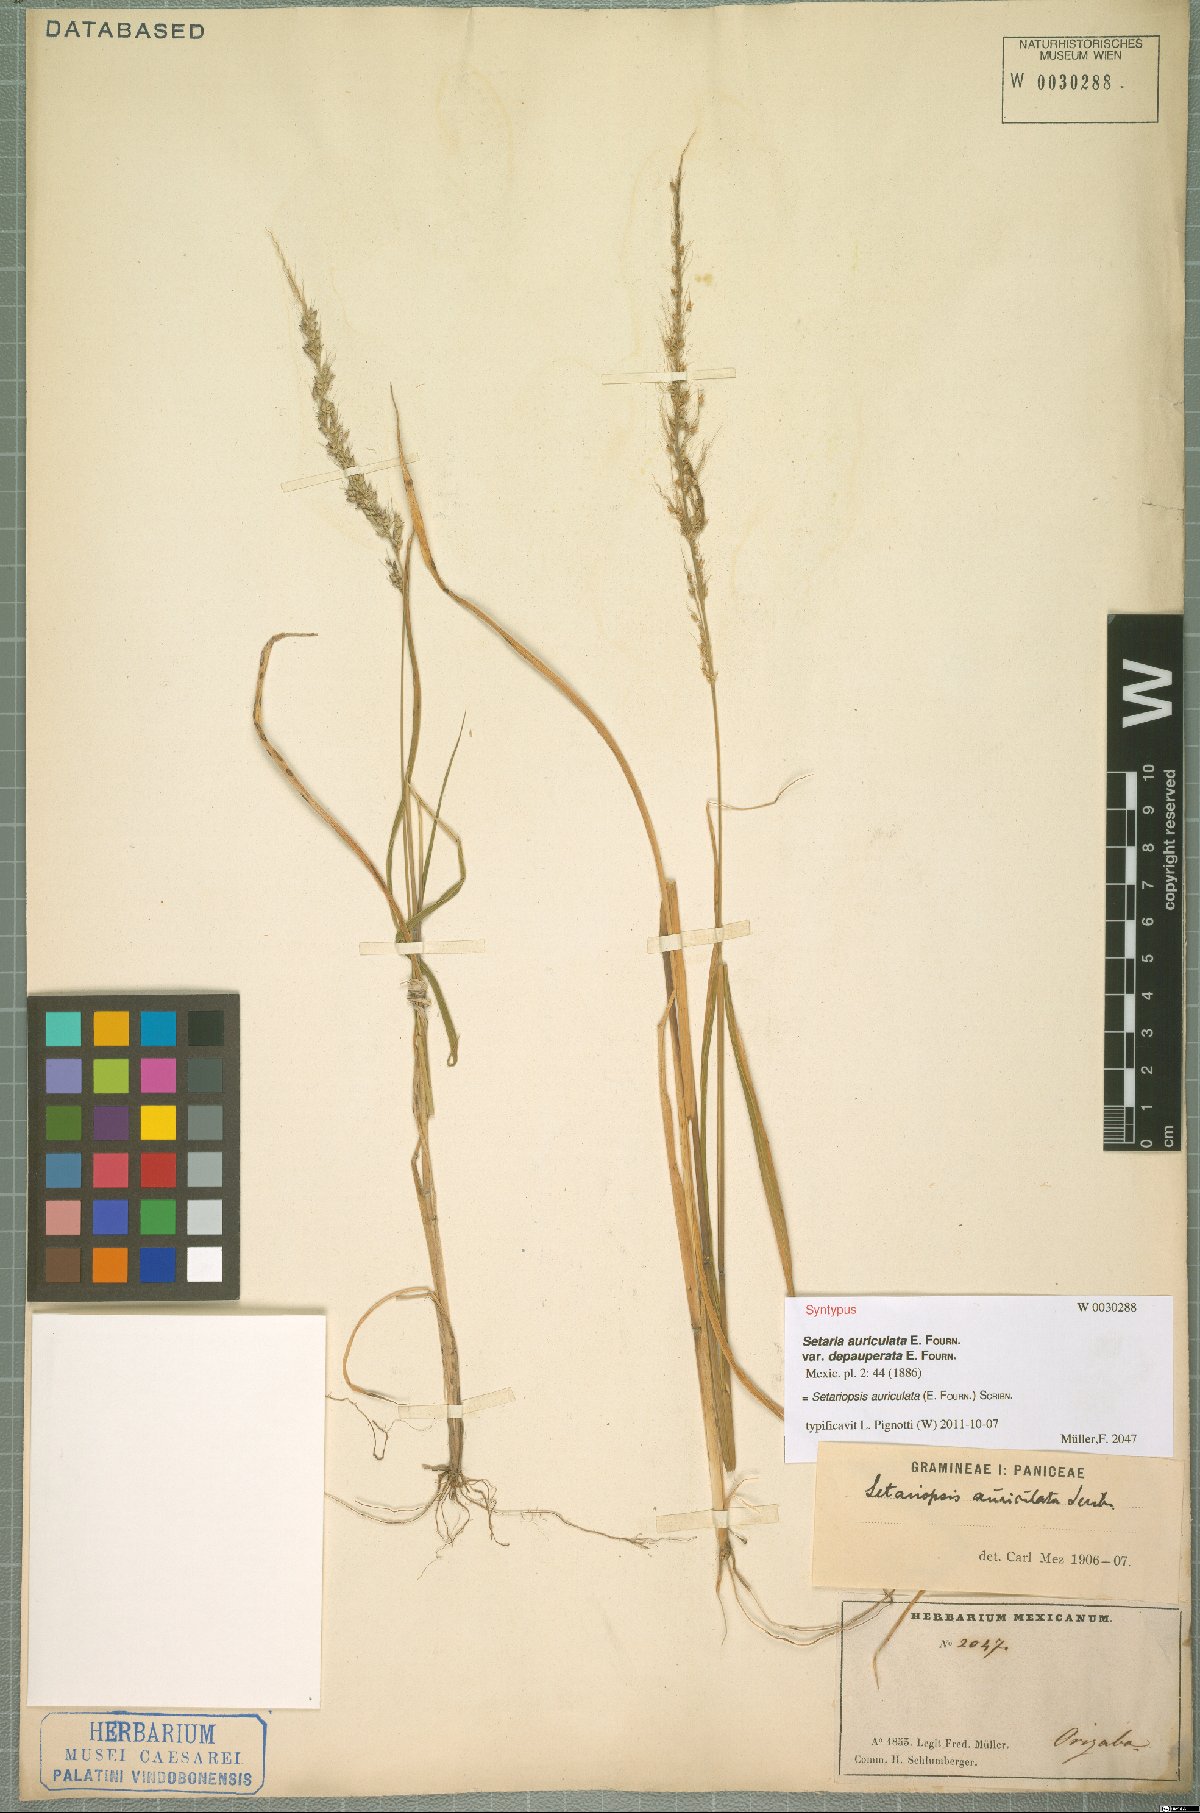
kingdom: Plantae
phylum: Tracheophyta
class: Liliopsida
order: Poales
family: Poaceae
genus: Setariopsis
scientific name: Setariopsis auriculata
